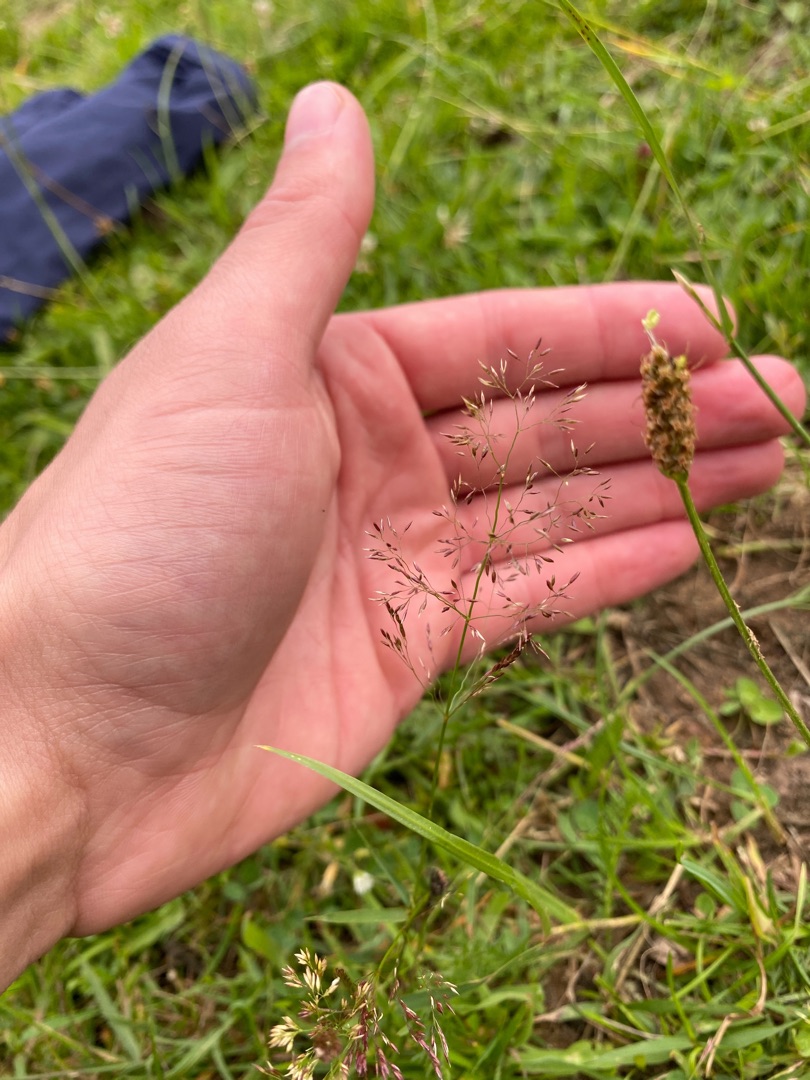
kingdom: Plantae
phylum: Tracheophyta
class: Liliopsida
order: Poales
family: Poaceae
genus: Agrostis
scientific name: Agrostis capillaris
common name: Almindelig hvene
